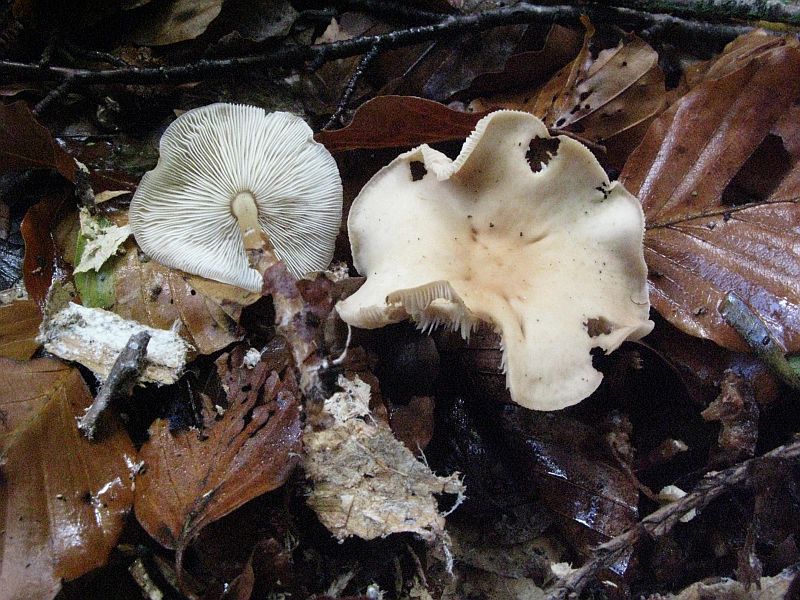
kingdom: Fungi
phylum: Basidiomycota
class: Agaricomycetes
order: Agaricales
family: Omphalotaceae
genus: Gymnopus
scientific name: Gymnopus dryophilus
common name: løv-fladhat
